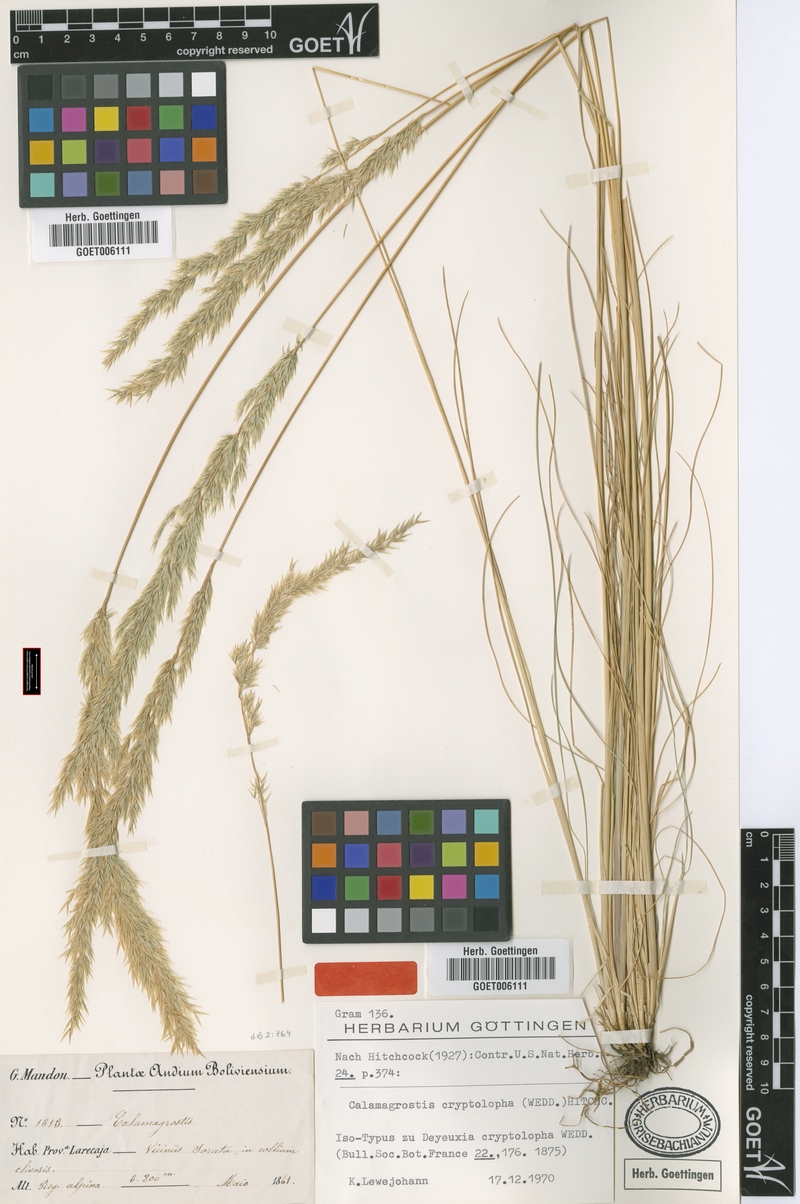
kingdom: Plantae
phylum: Tracheophyta
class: Liliopsida
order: Poales
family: Poaceae
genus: Cinnagrostis
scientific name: Cinnagrostis cryptolopha
